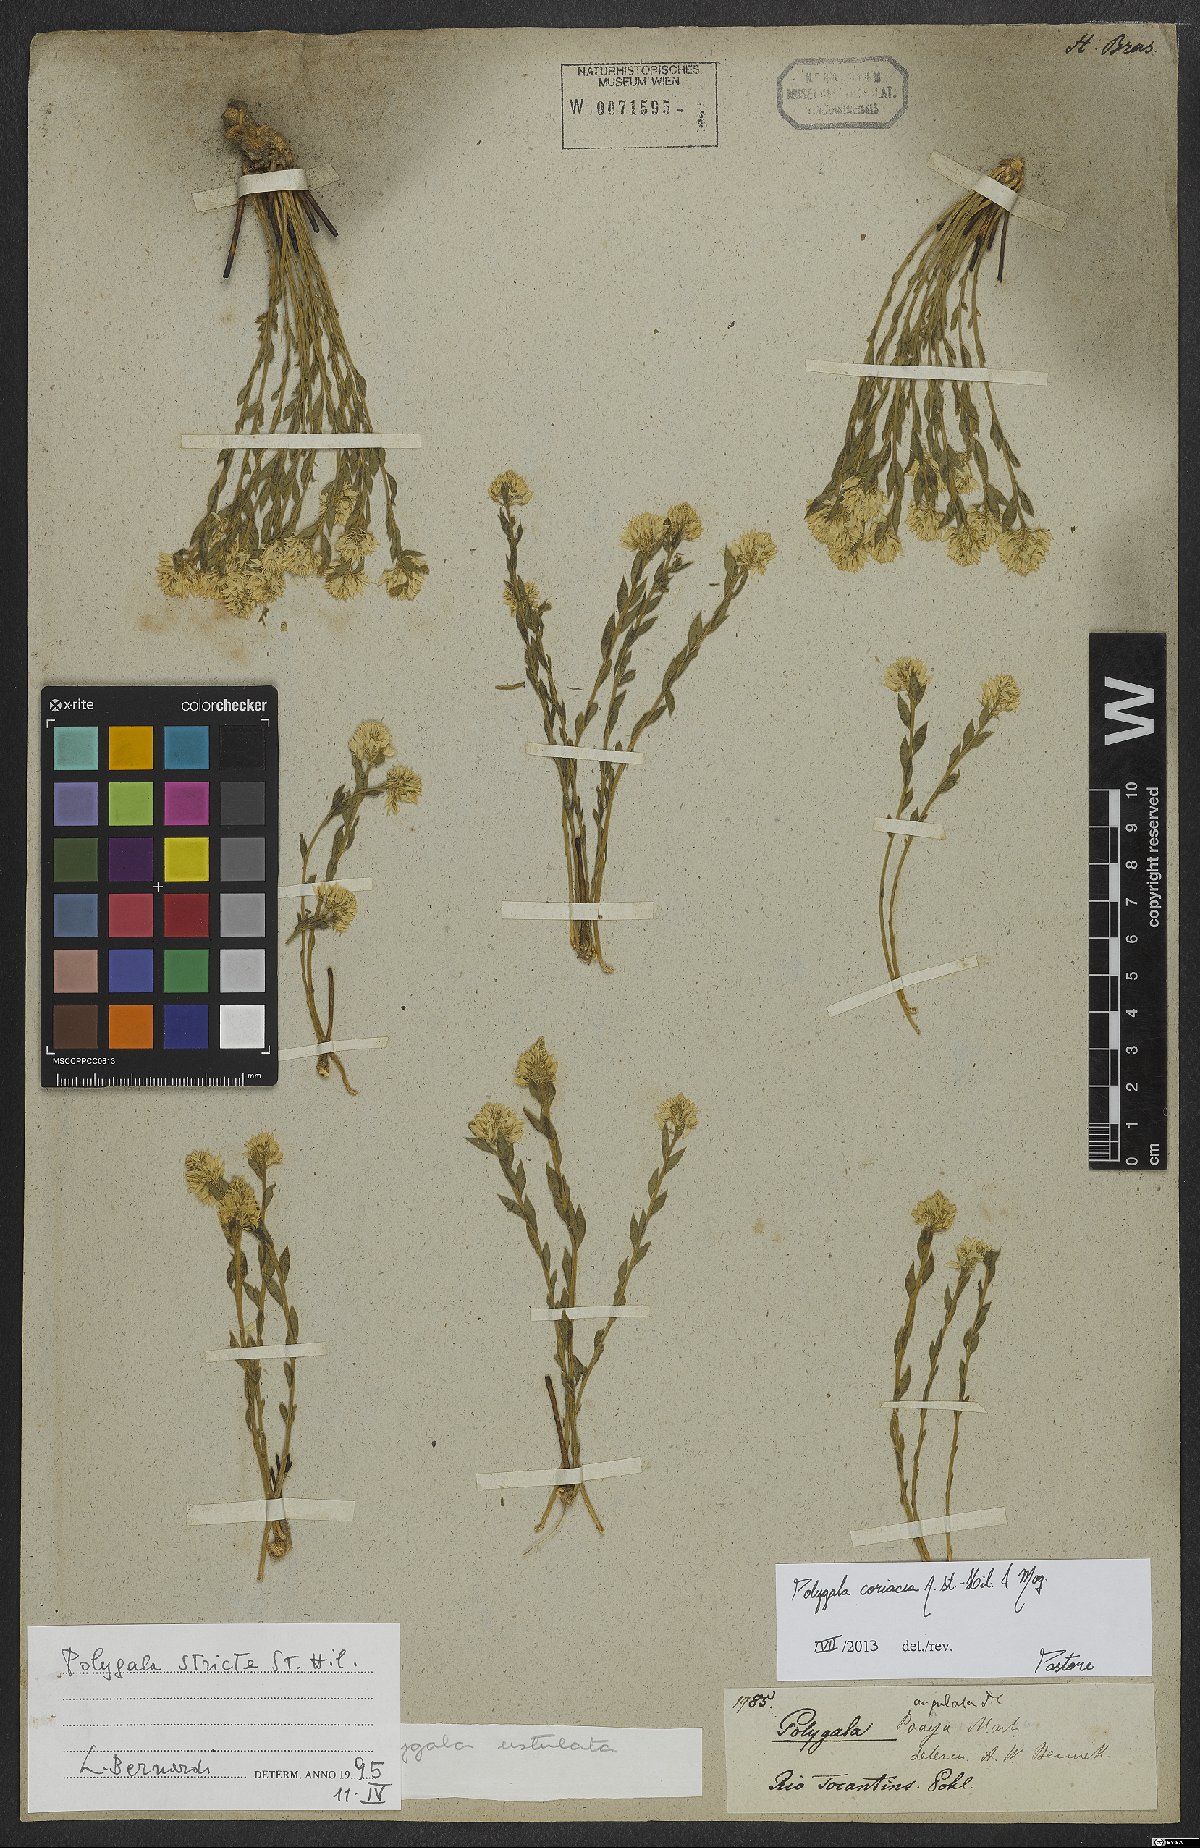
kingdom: Plantae
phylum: Tracheophyta
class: Magnoliopsida
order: Fabales
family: Polygalaceae
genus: Polygala
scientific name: Polygala coriacea
